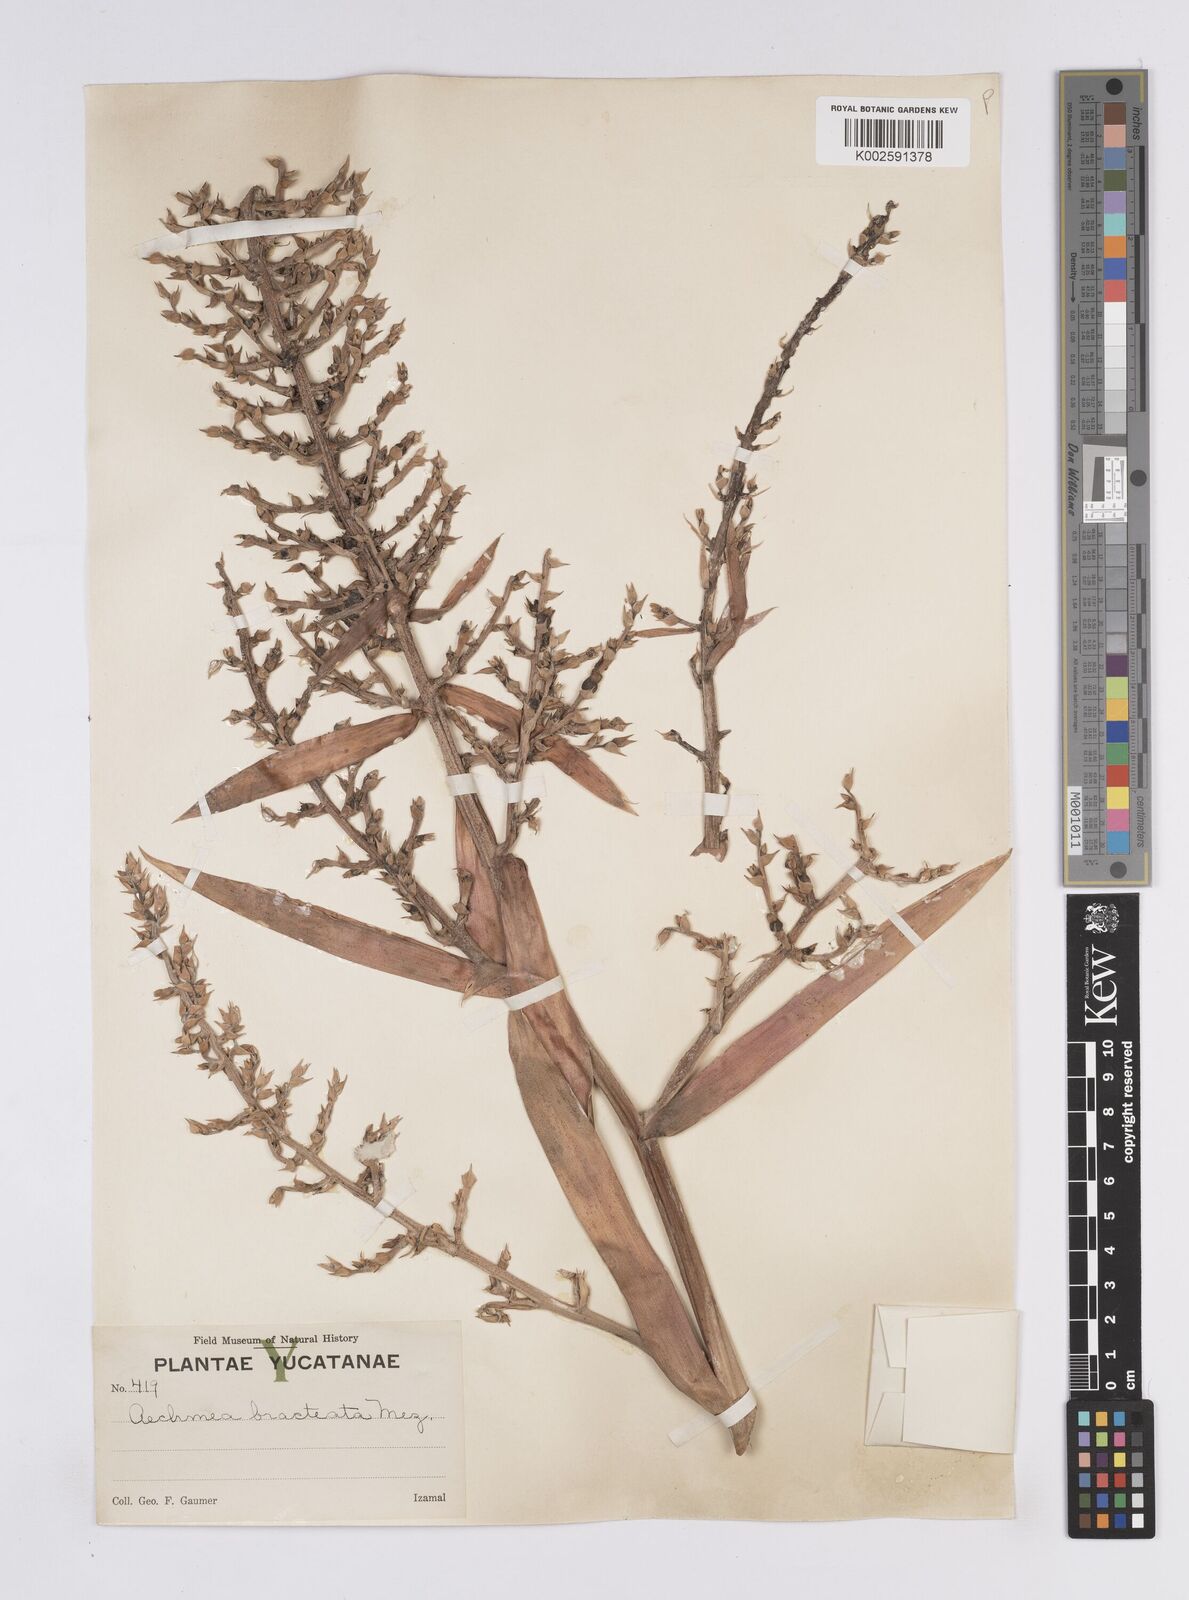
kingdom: Plantae
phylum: Tracheophyta
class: Liliopsida
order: Poales
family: Bromeliaceae
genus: Aechmea
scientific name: Aechmea bracteata
